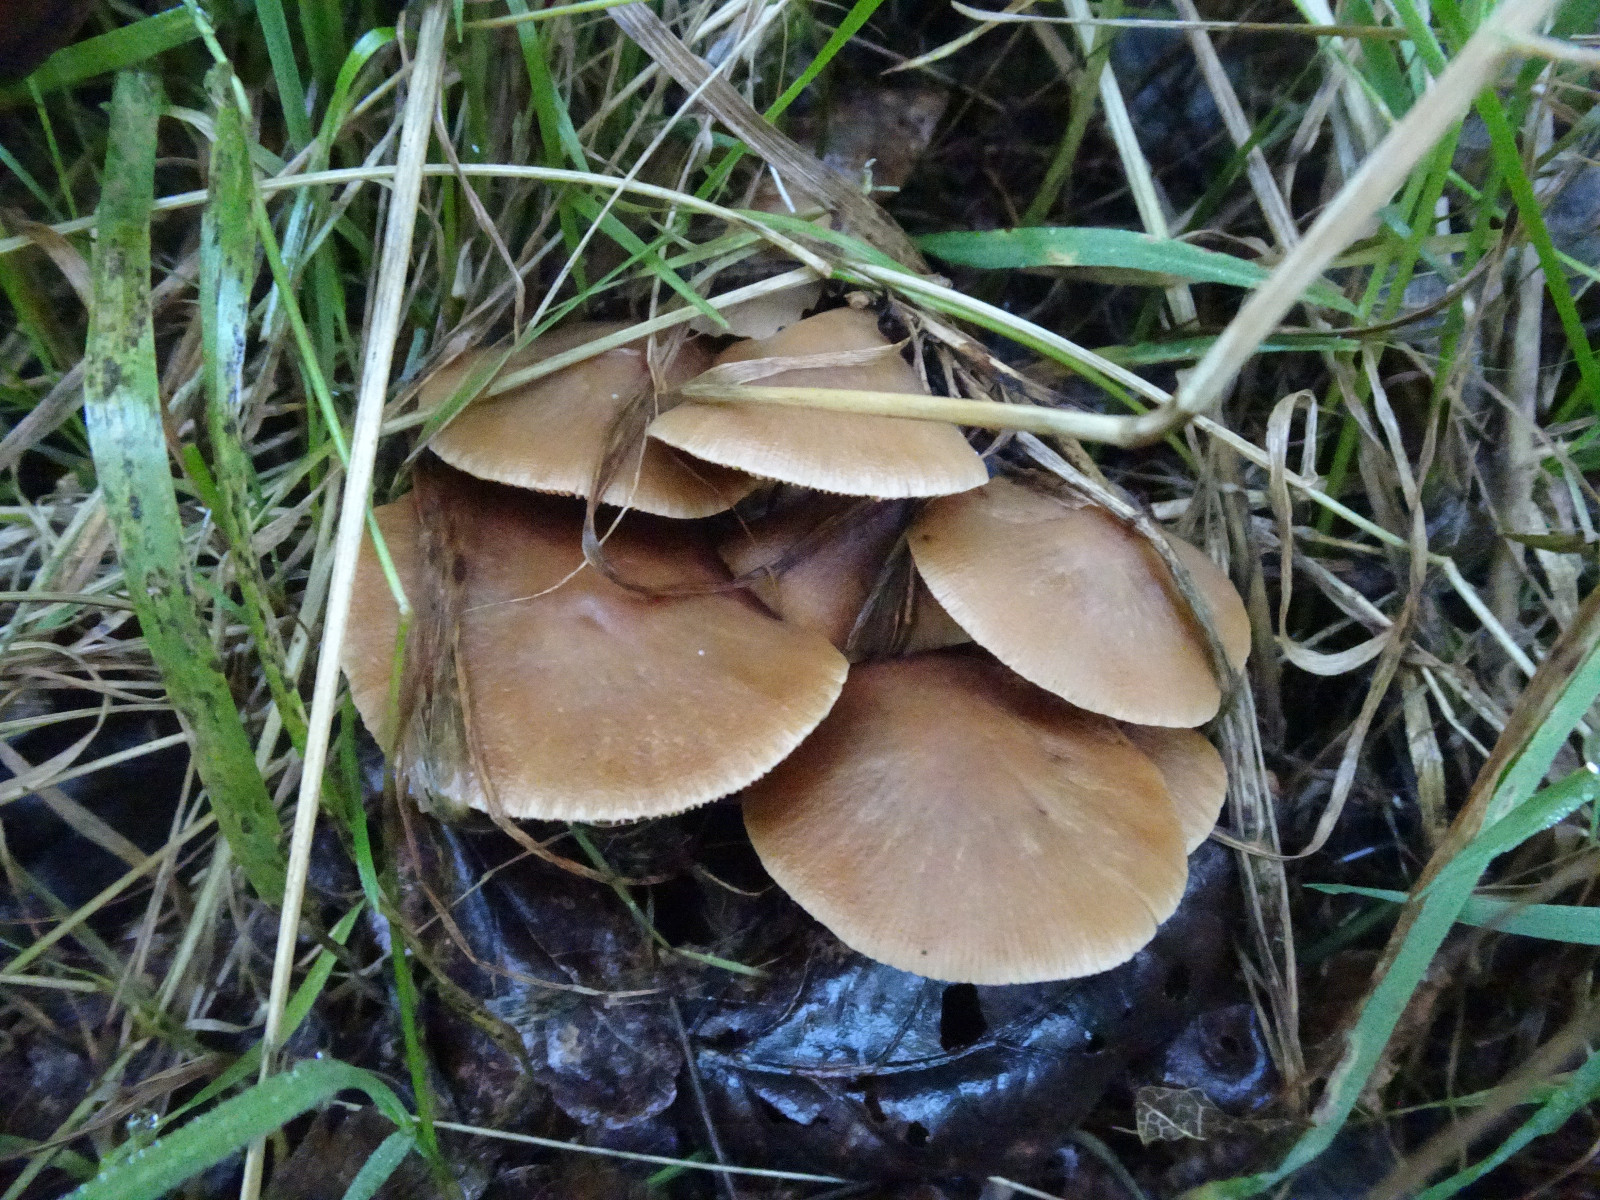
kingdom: Fungi
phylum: Basidiomycota
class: Agaricomycetes
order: Agaricales
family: Psathyrellaceae
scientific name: Psathyrellaceae
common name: mørkhatfamilien
